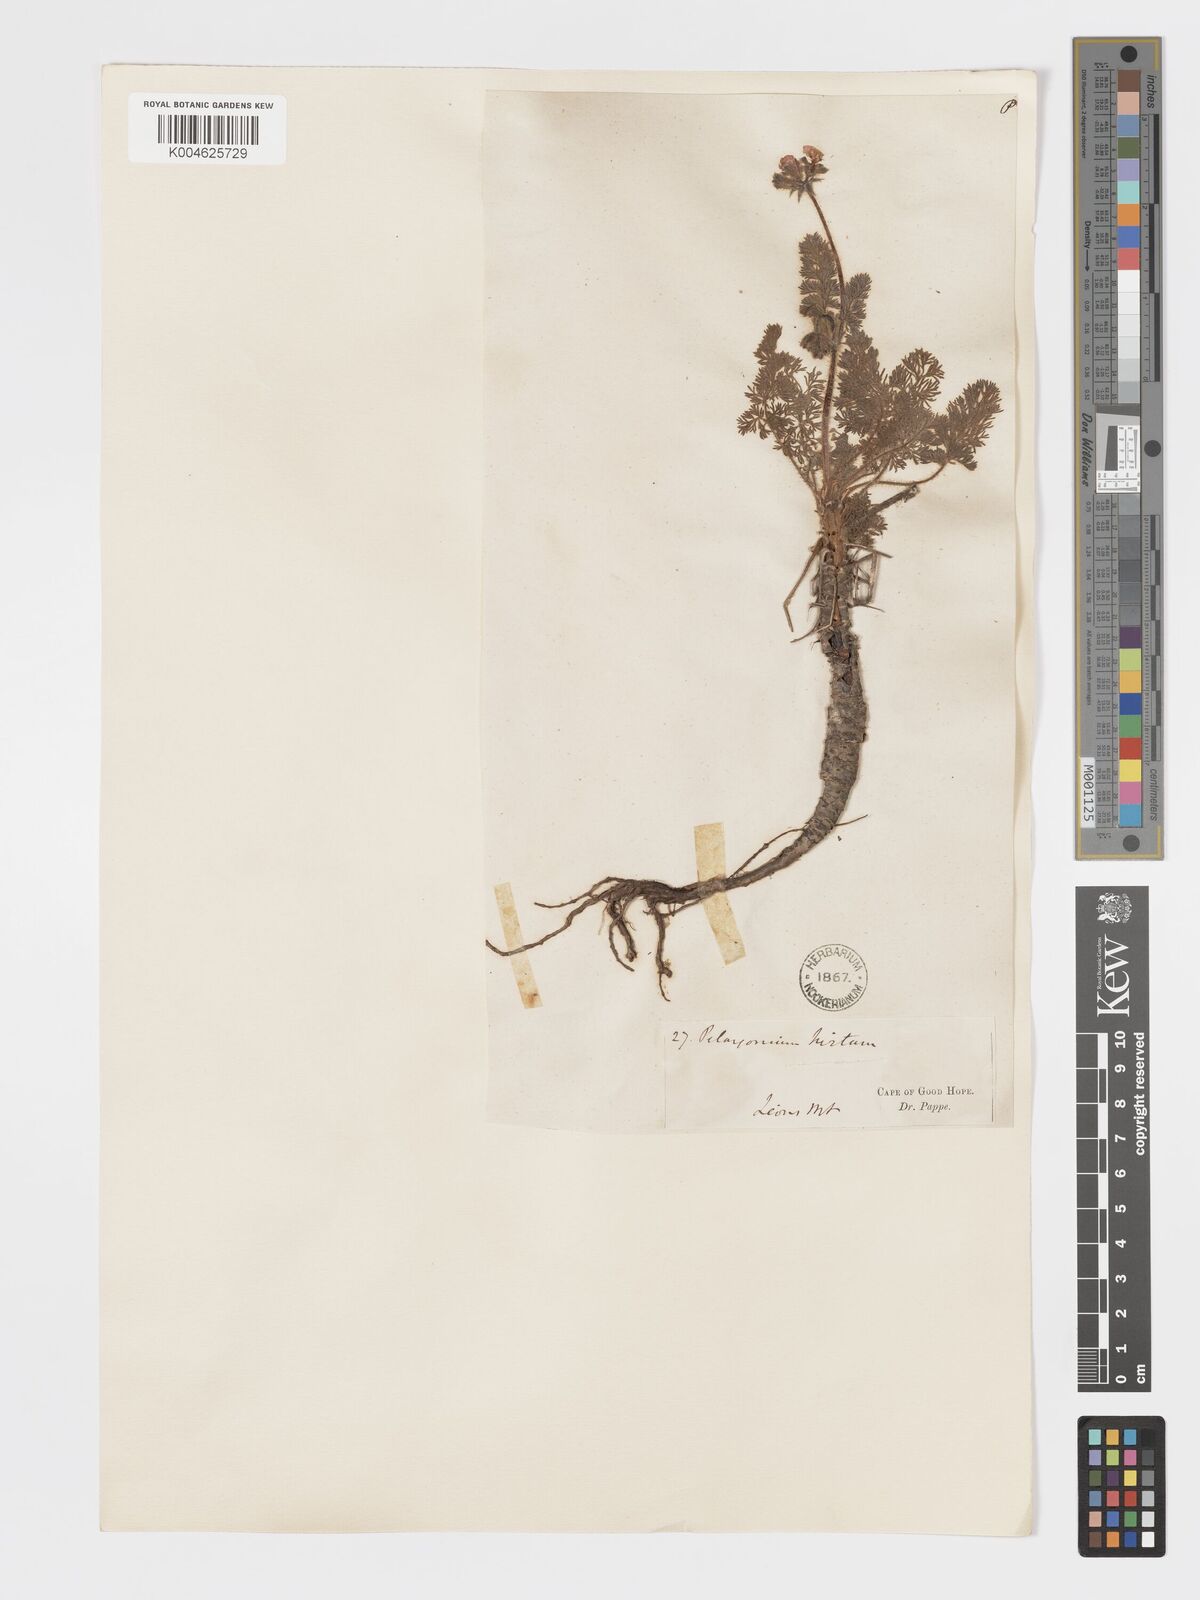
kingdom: Plantae
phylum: Tracheophyta
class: Magnoliopsida
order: Geraniales
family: Geraniaceae
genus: Pelargonium
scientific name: Pelargonium
